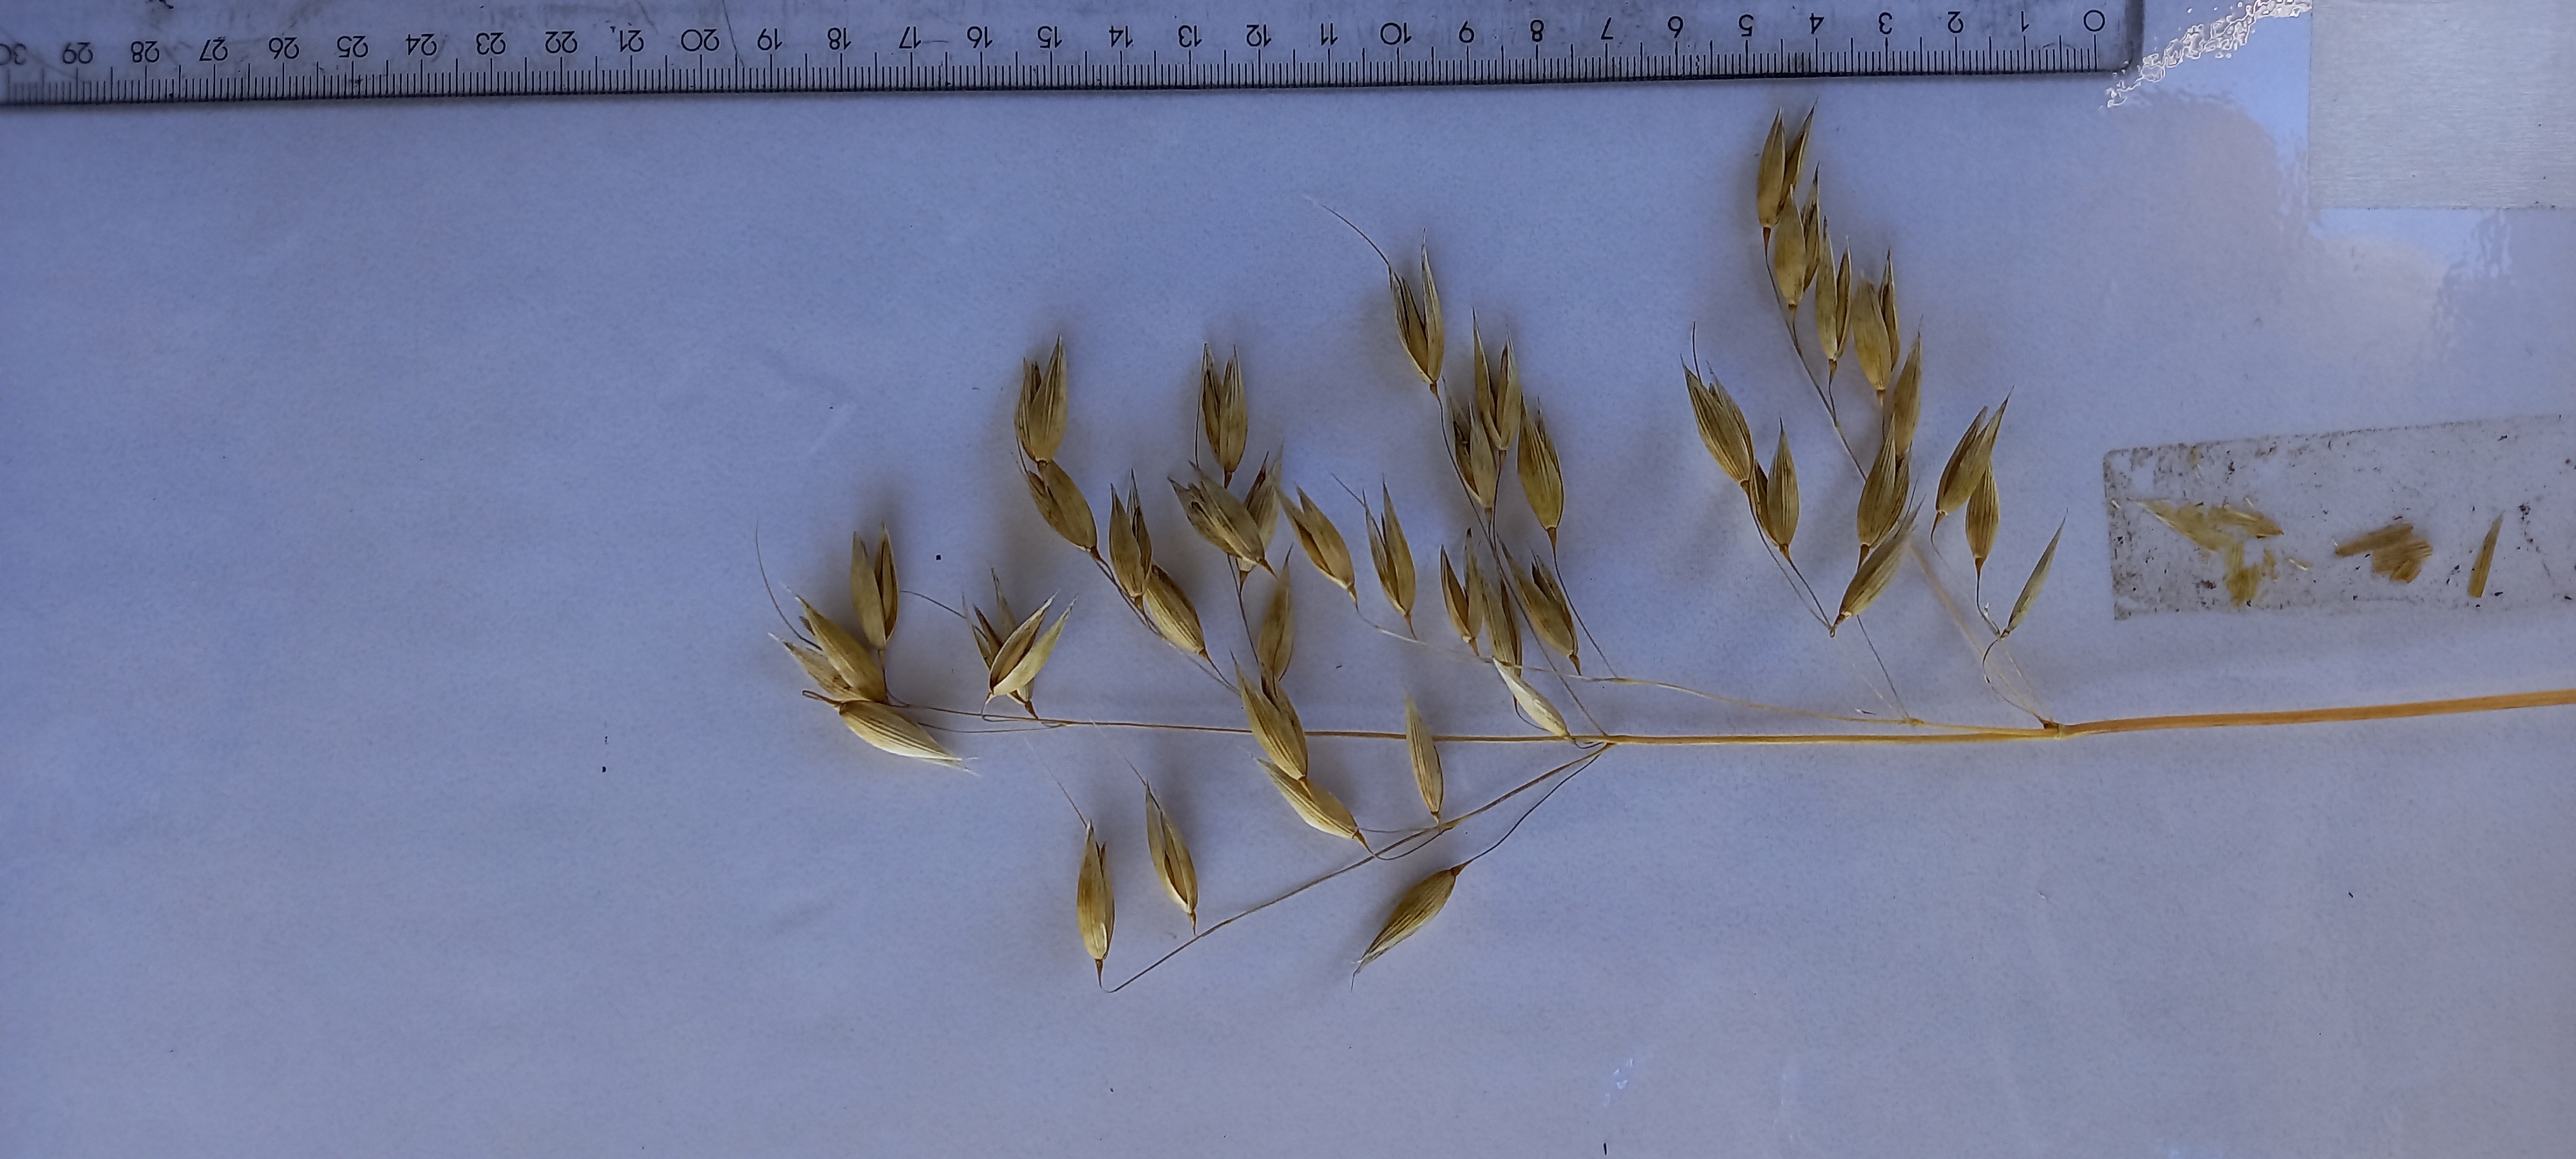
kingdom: Plantae
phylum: Tracheophyta
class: Liliopsida
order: Poales
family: Poaceae
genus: Avena
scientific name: Avena sativa
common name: Oat
